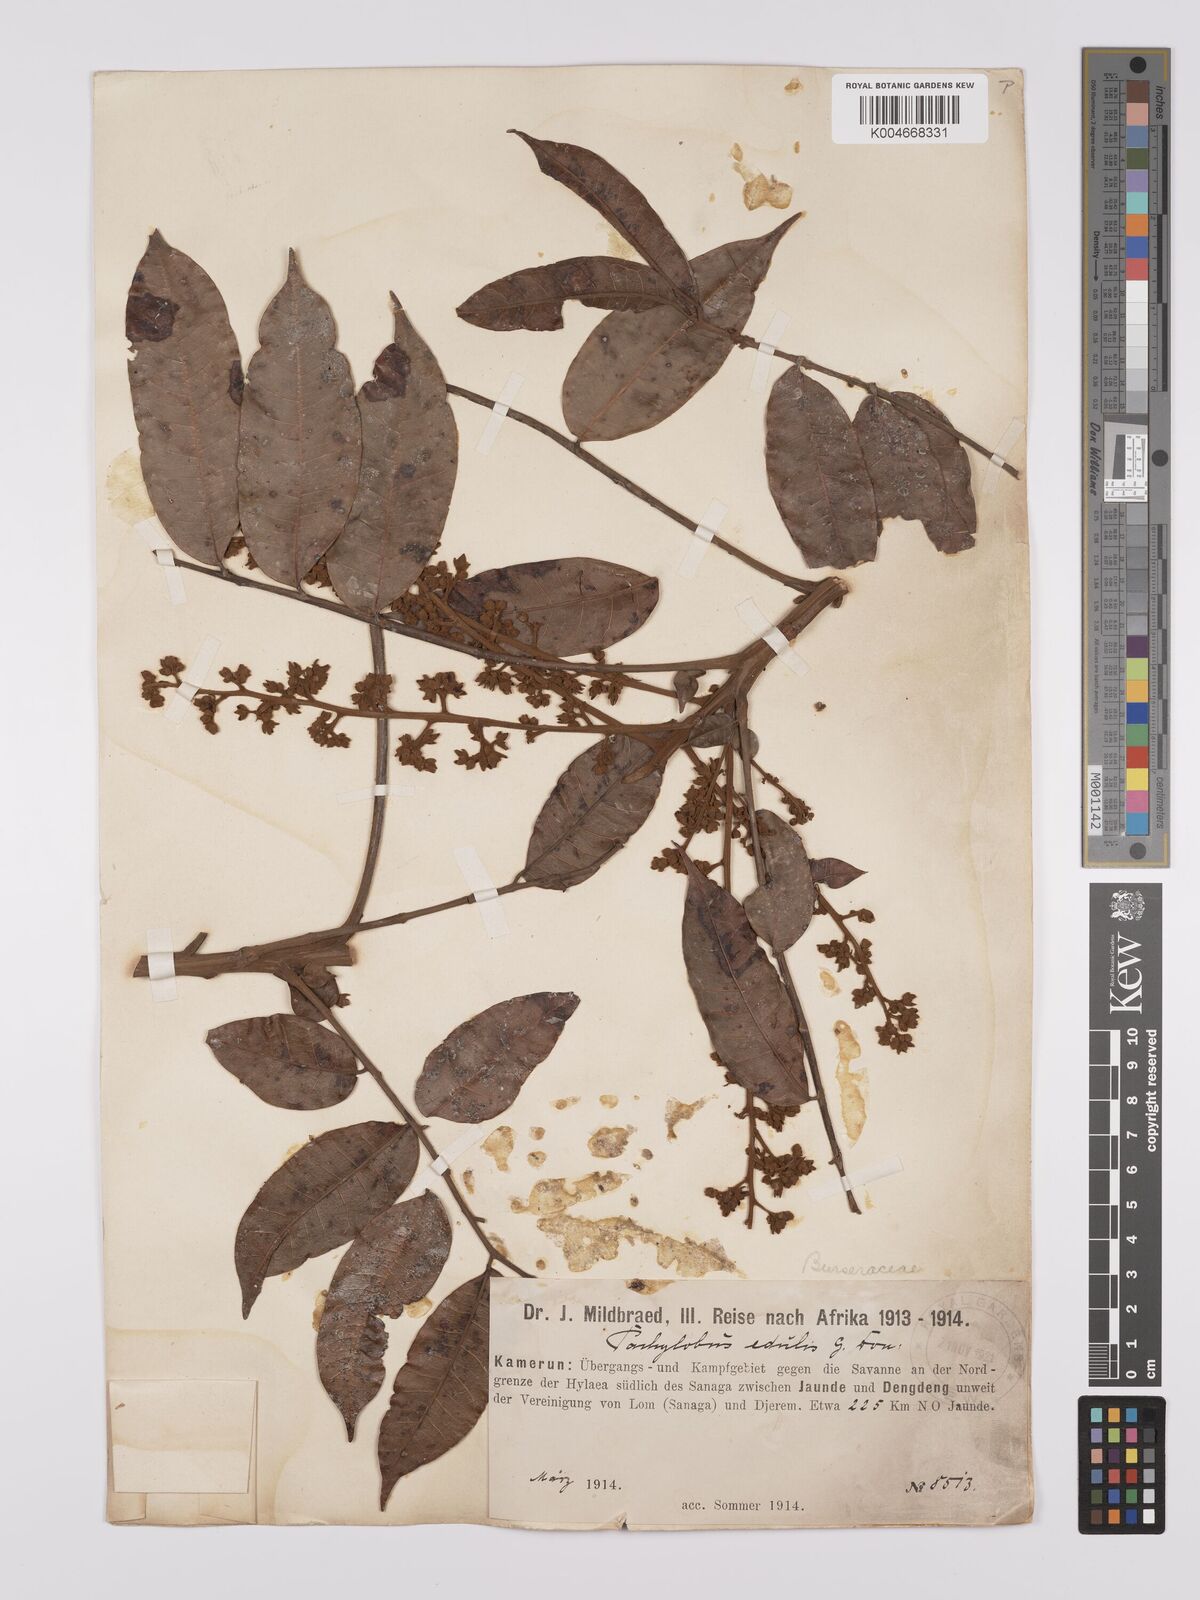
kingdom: Plantae
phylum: Tracheophyta
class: Magnoliopsida
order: Sapindales
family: Burseraceae
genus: Pachylobus
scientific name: Pachylobus edulis
